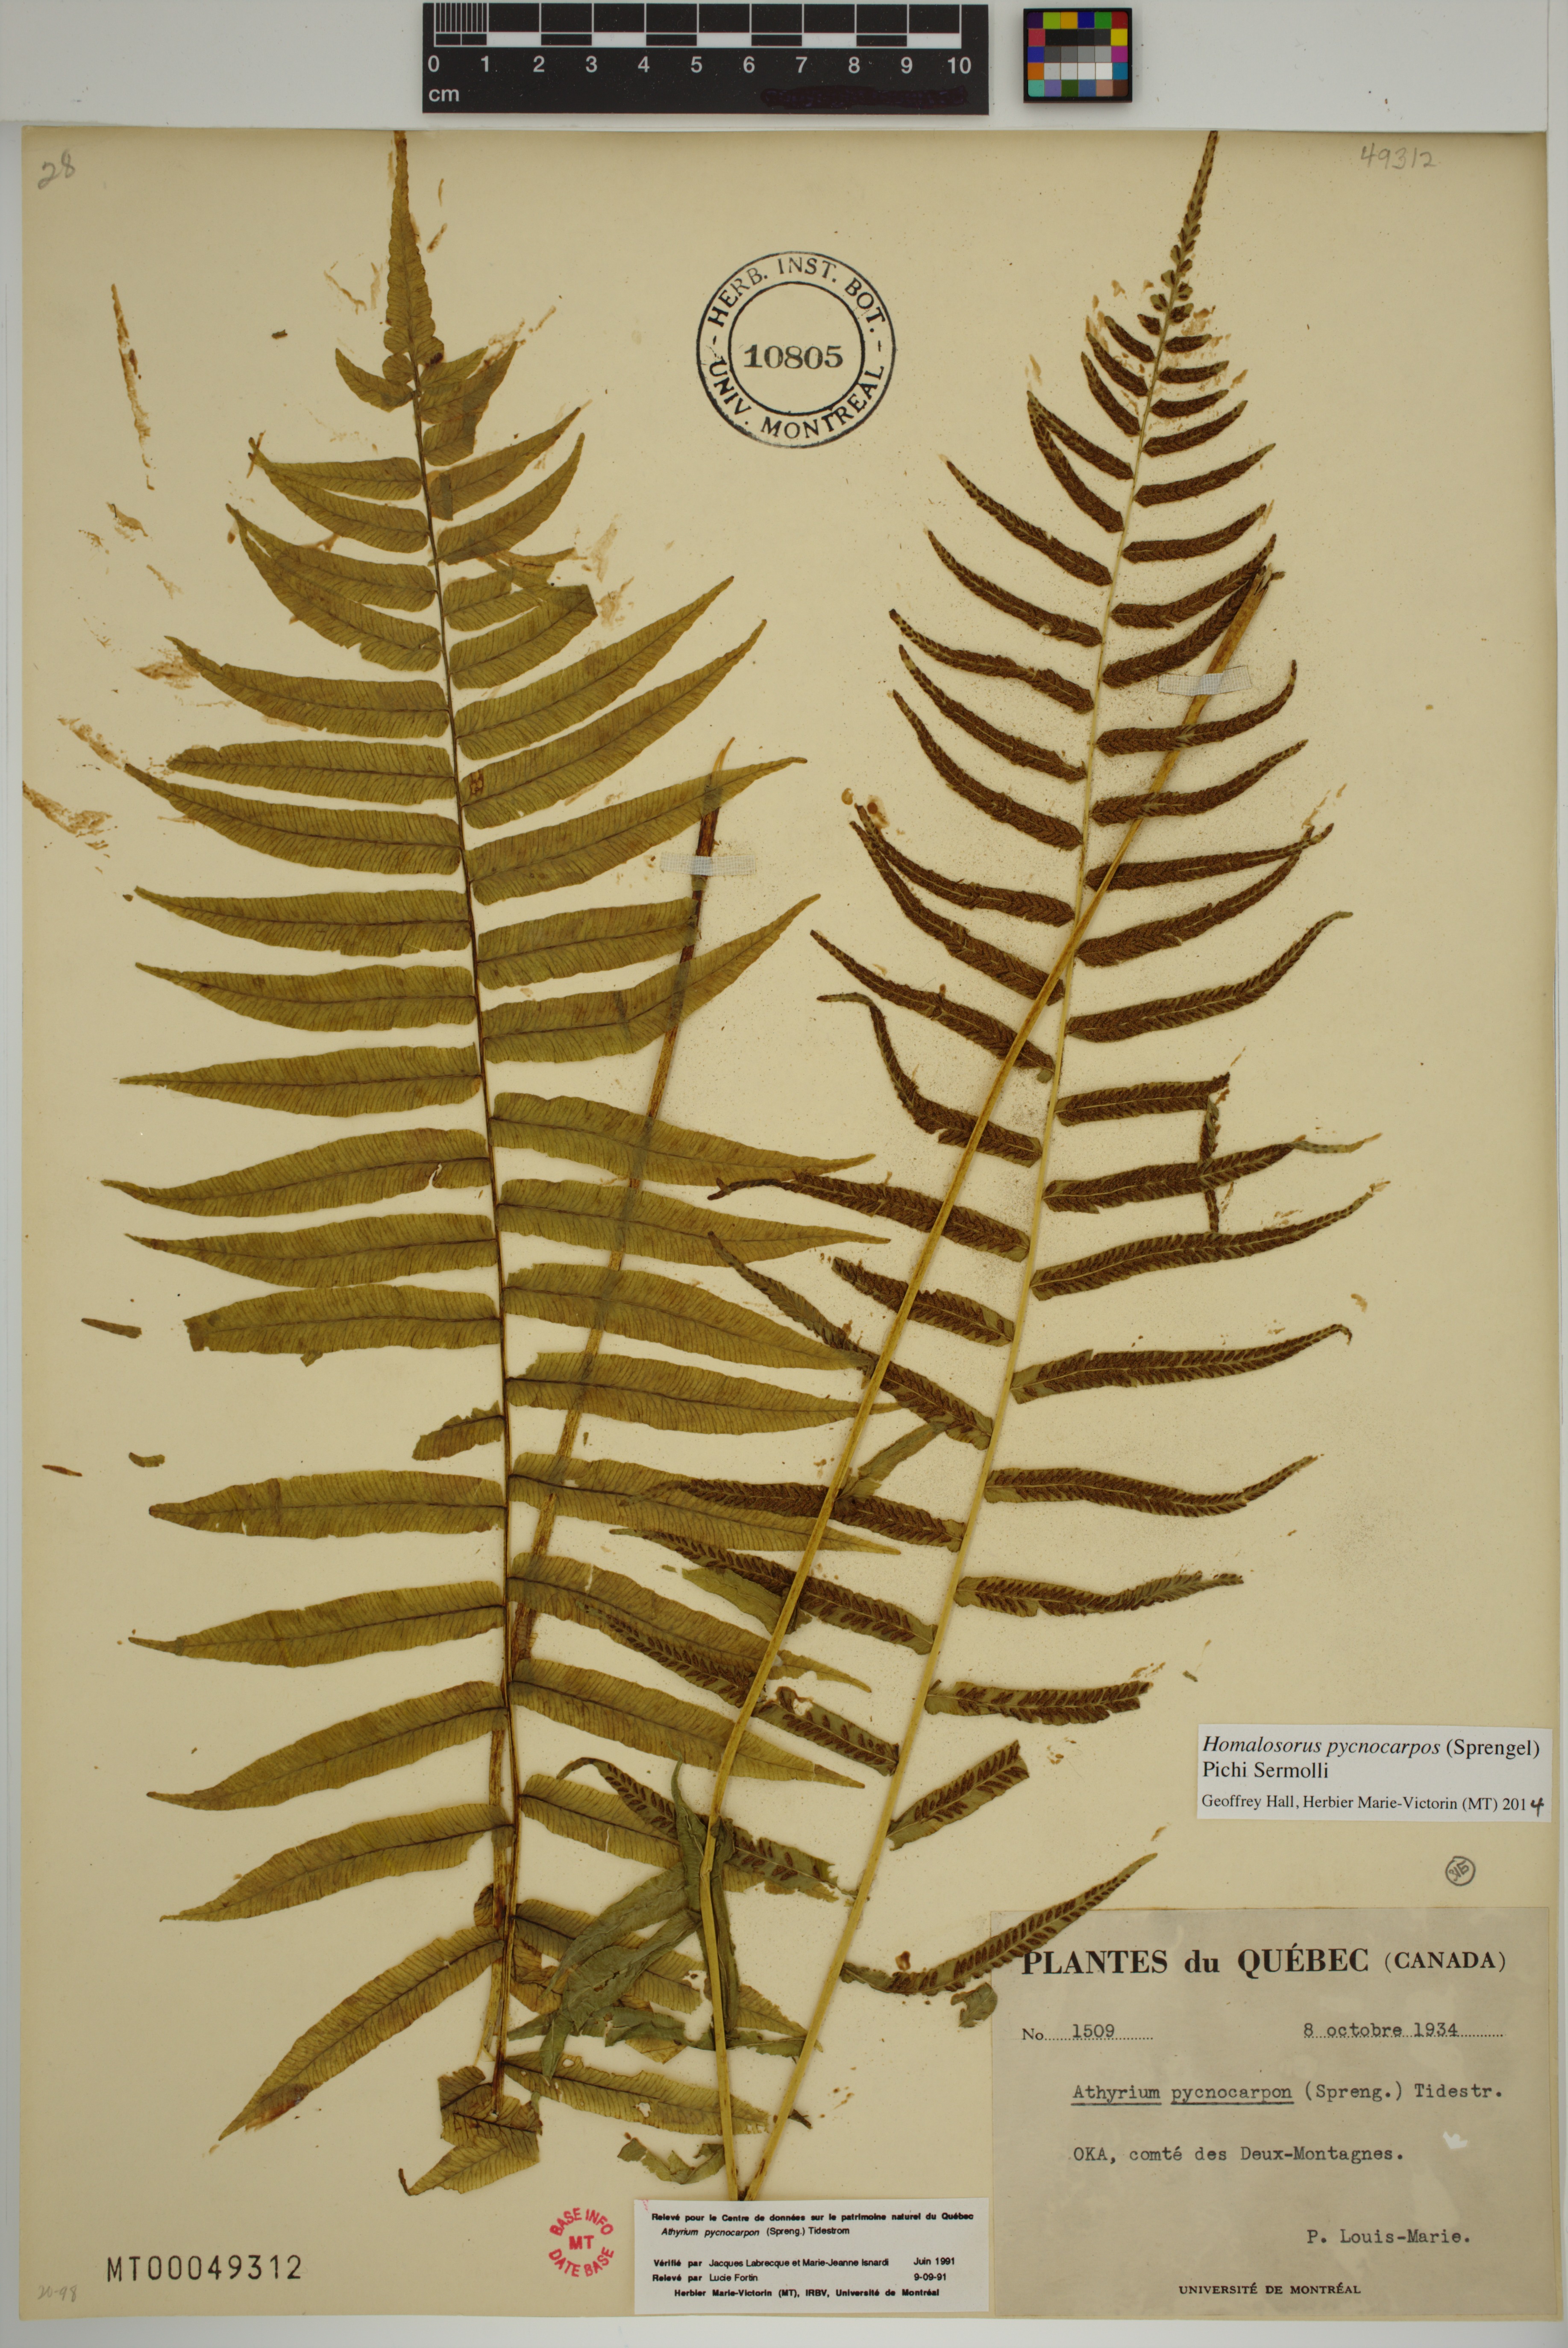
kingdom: Plantae
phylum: Tracheophyta
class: Polypodiopsida
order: Polypodiales
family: Diplaziopsidaceae
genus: Homalosorus
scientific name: Homalosorus pycnocarpos
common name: Glade fern
